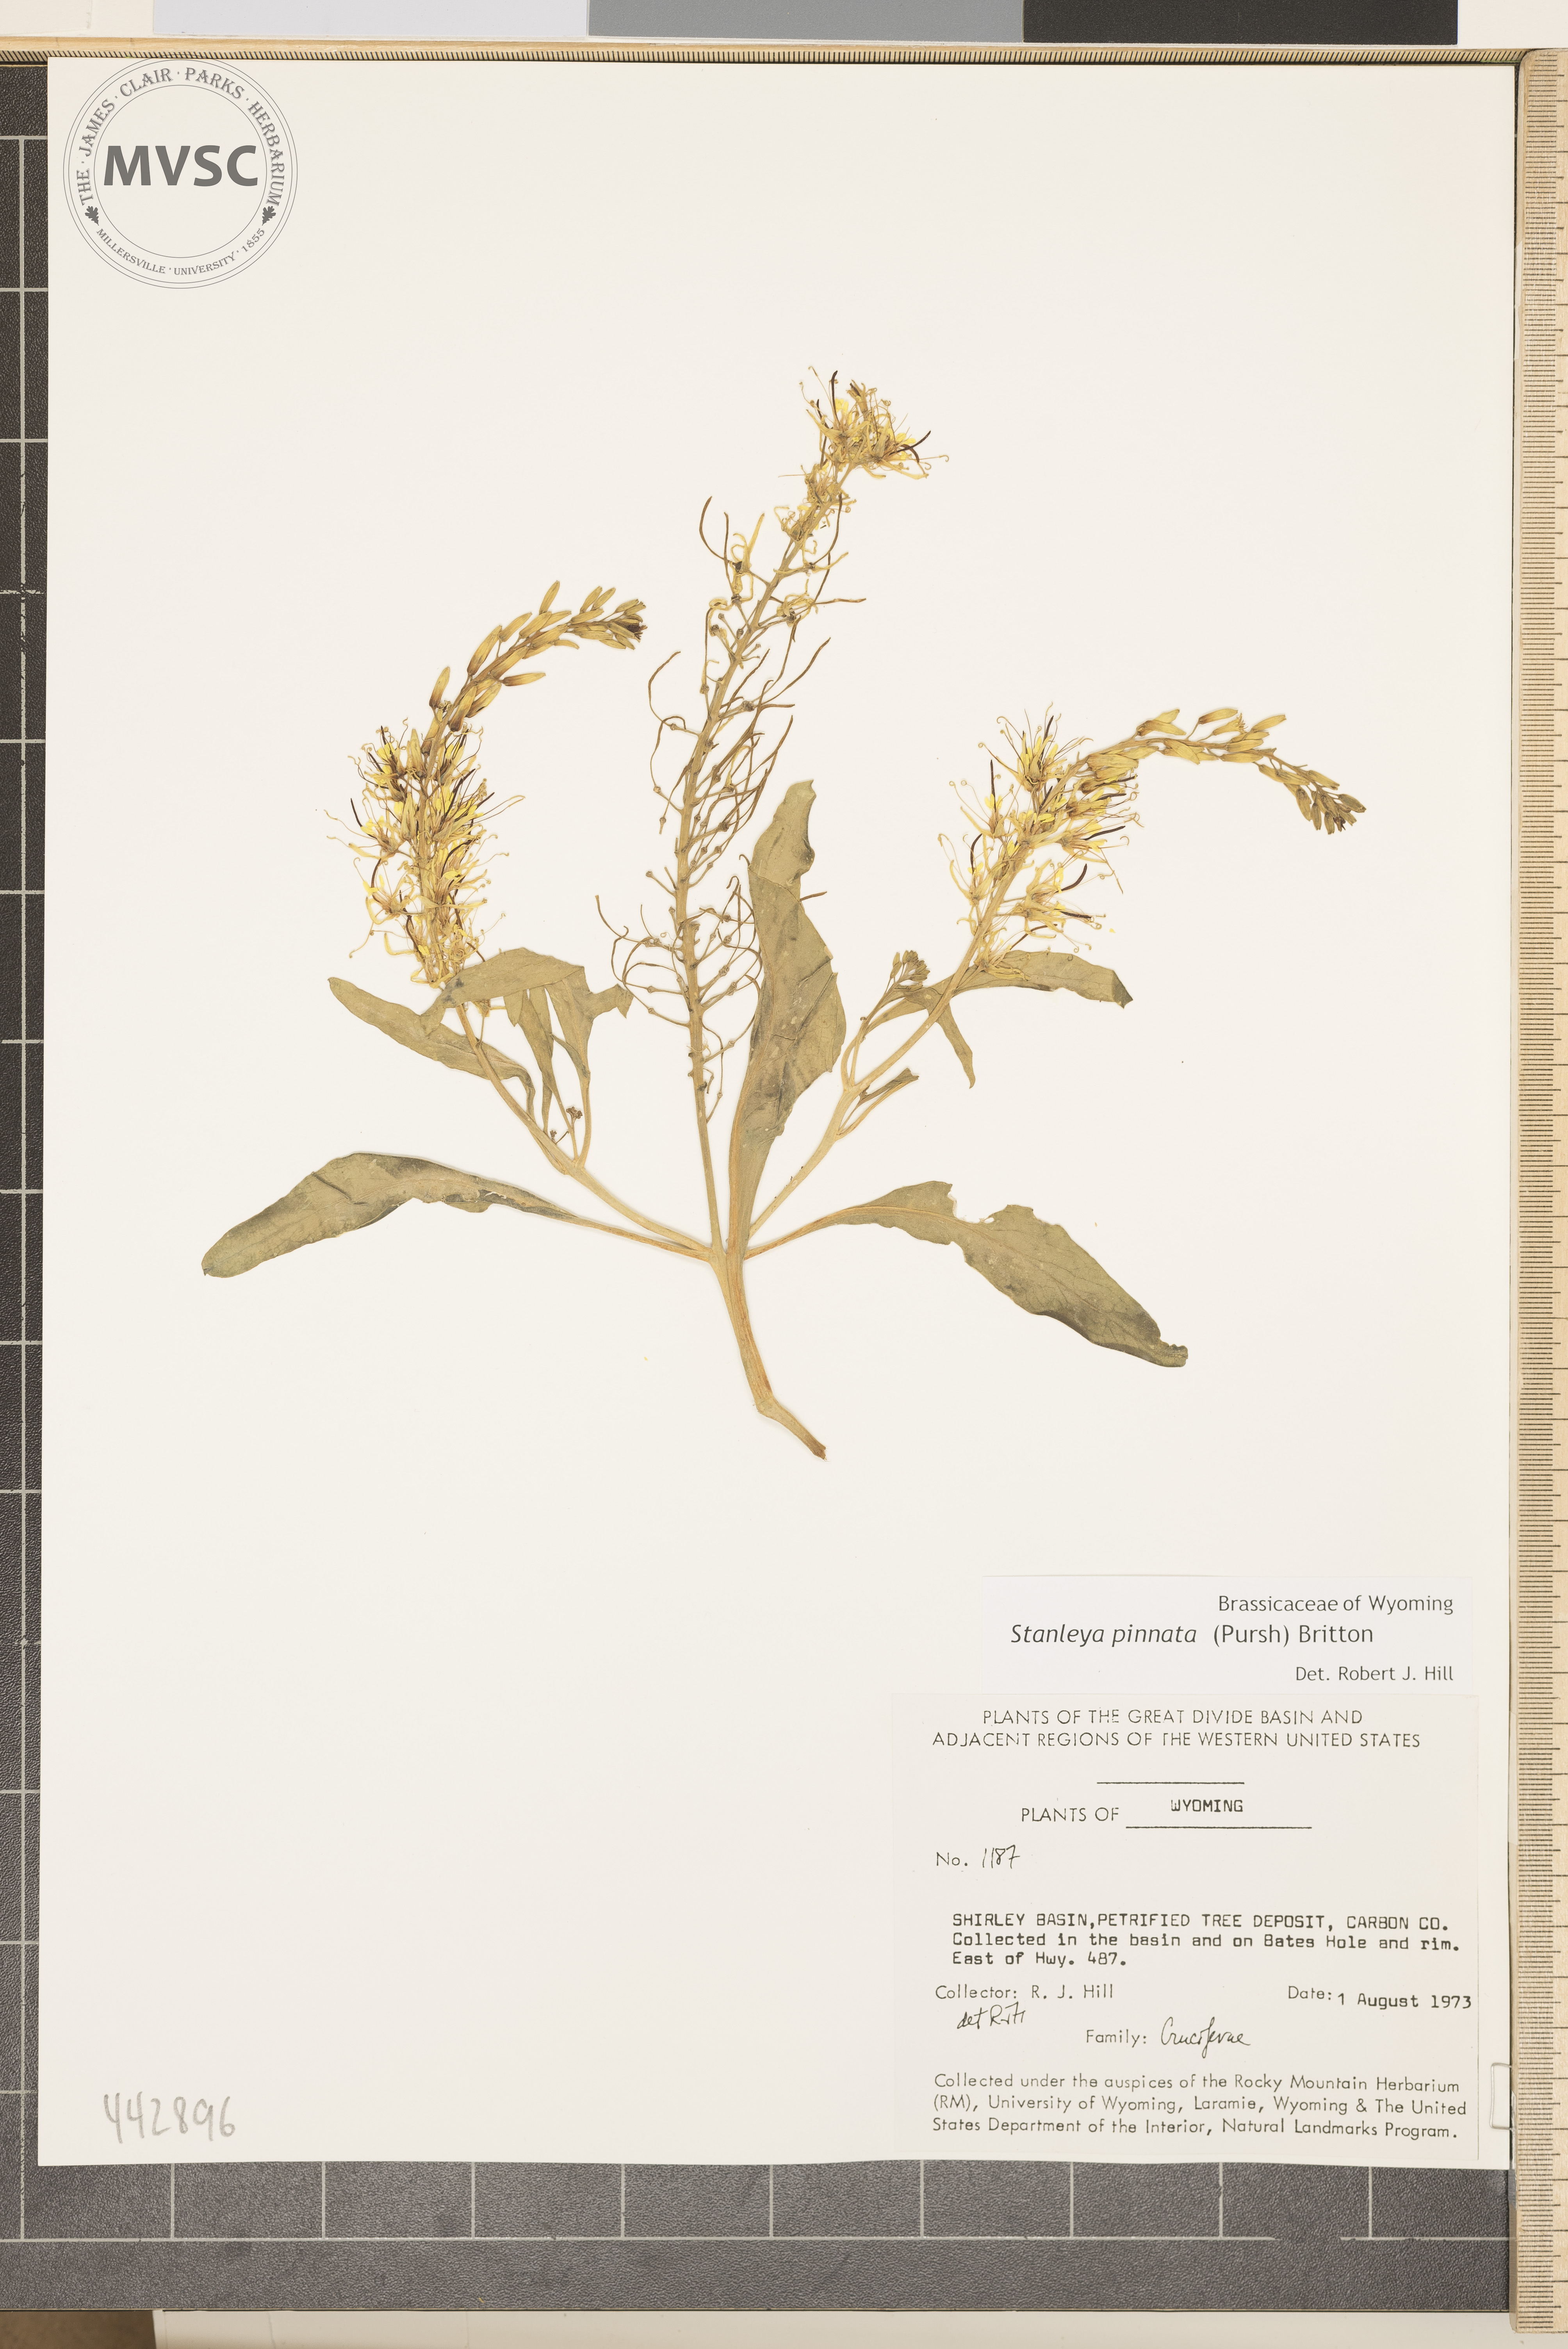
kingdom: Plantae
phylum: Tracheophyta
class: Magnoliopsida
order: Brassicales
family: Brassicaceae
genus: Stanleya
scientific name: Stanleya pinnata
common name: Prince's-plume
